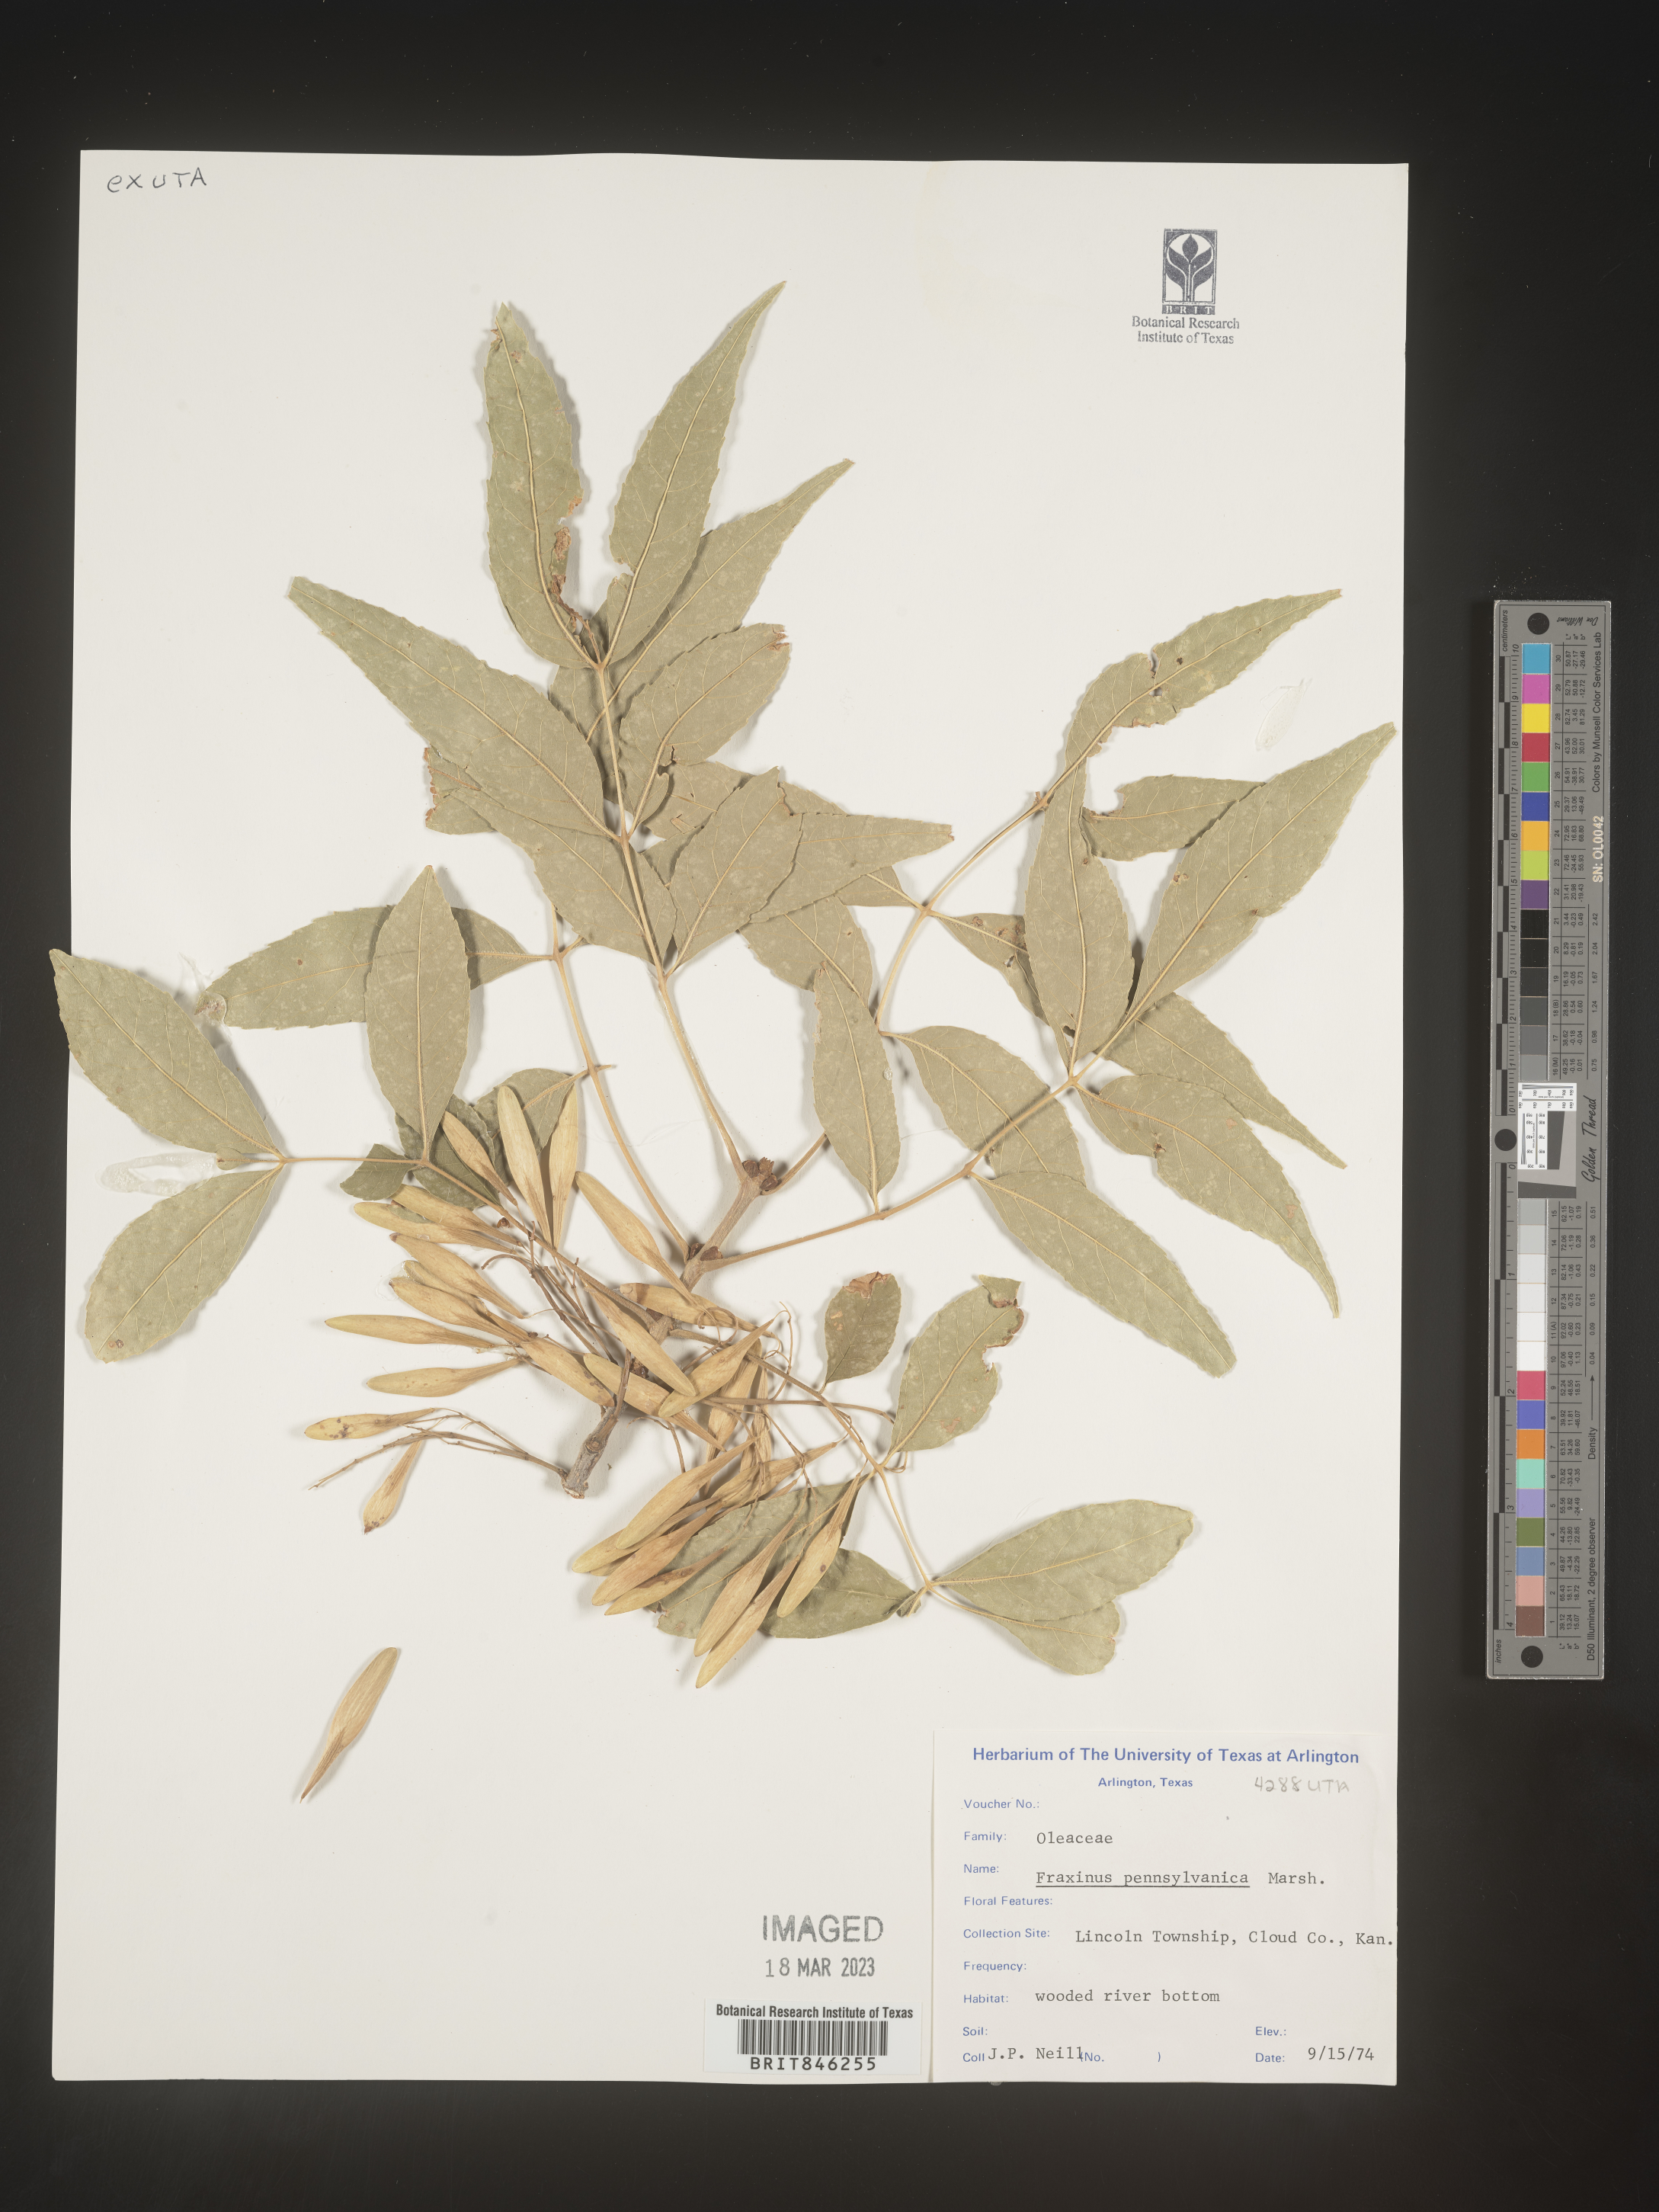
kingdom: Plantae
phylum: Tracheophyta
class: Magnoliopsida
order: Lamiales
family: Oleaceae
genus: Fraxinus
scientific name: Fraxinus pennsylvanica
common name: Green ash
